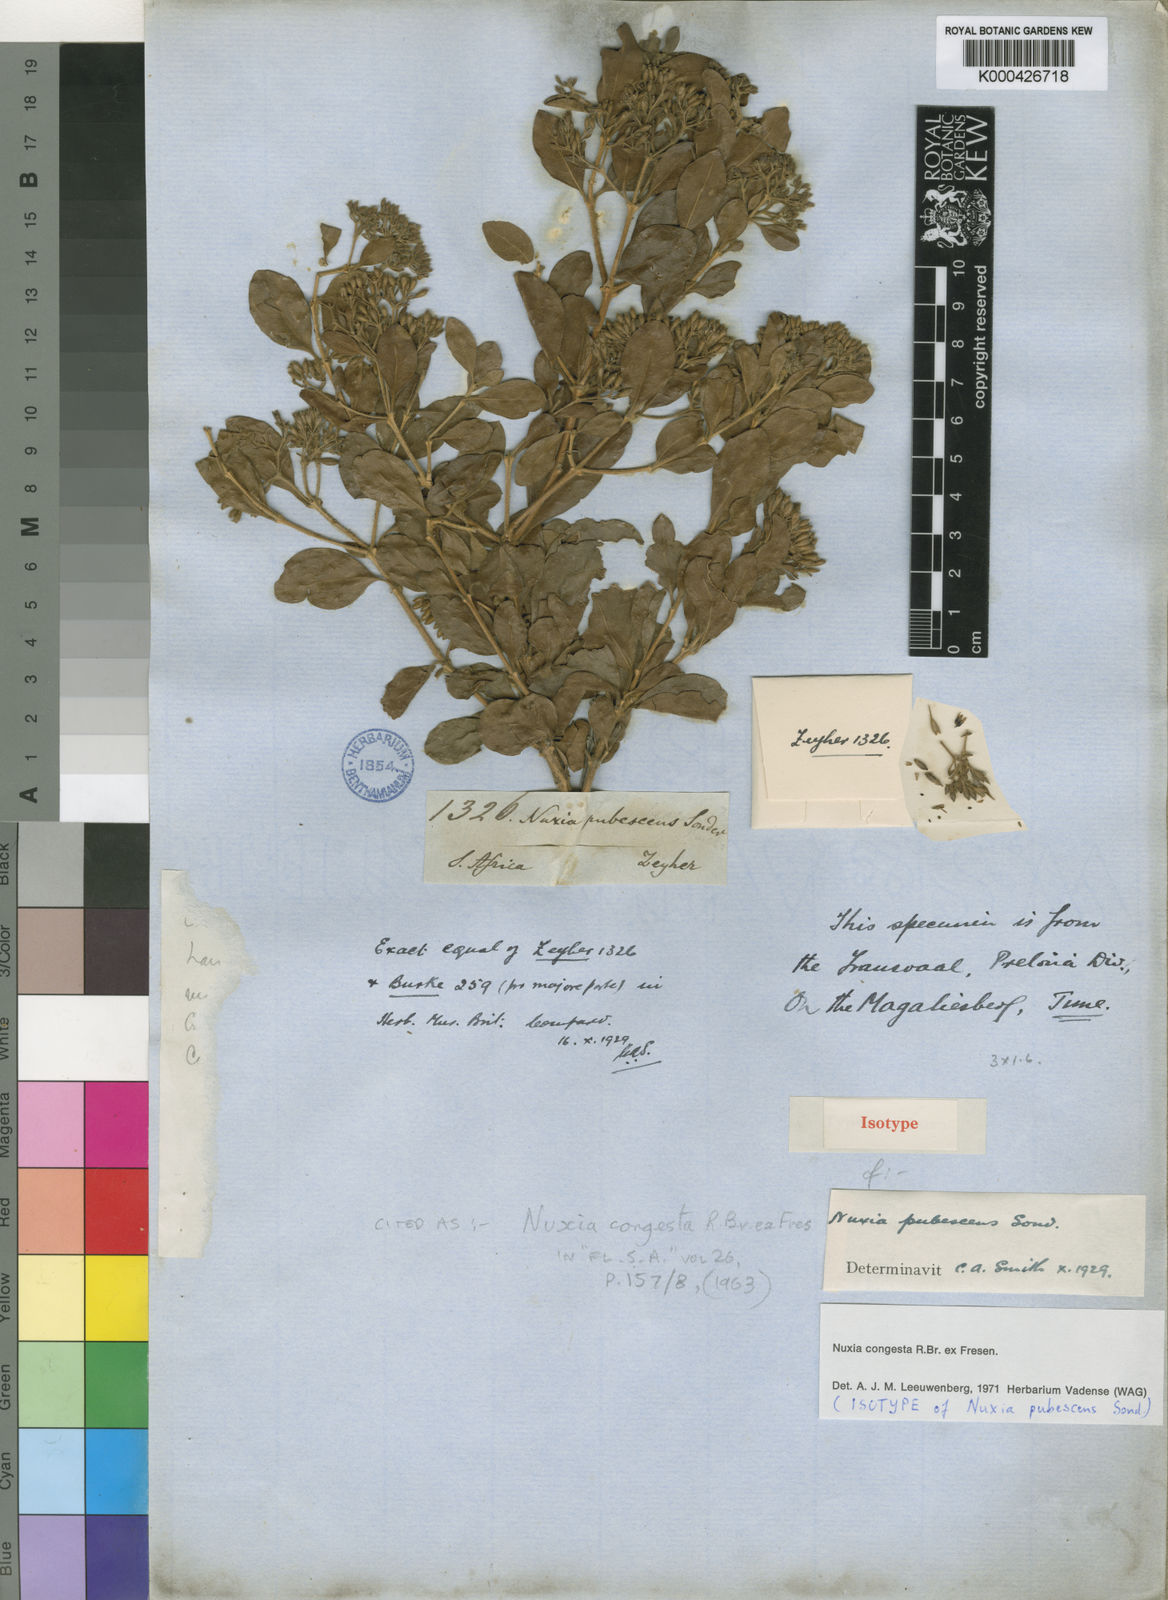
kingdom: Plantae
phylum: Tracheophyta
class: Magnoliopsida
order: Lamiales
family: Stilbaceae
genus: Nuxia
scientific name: Nuxia congesta
